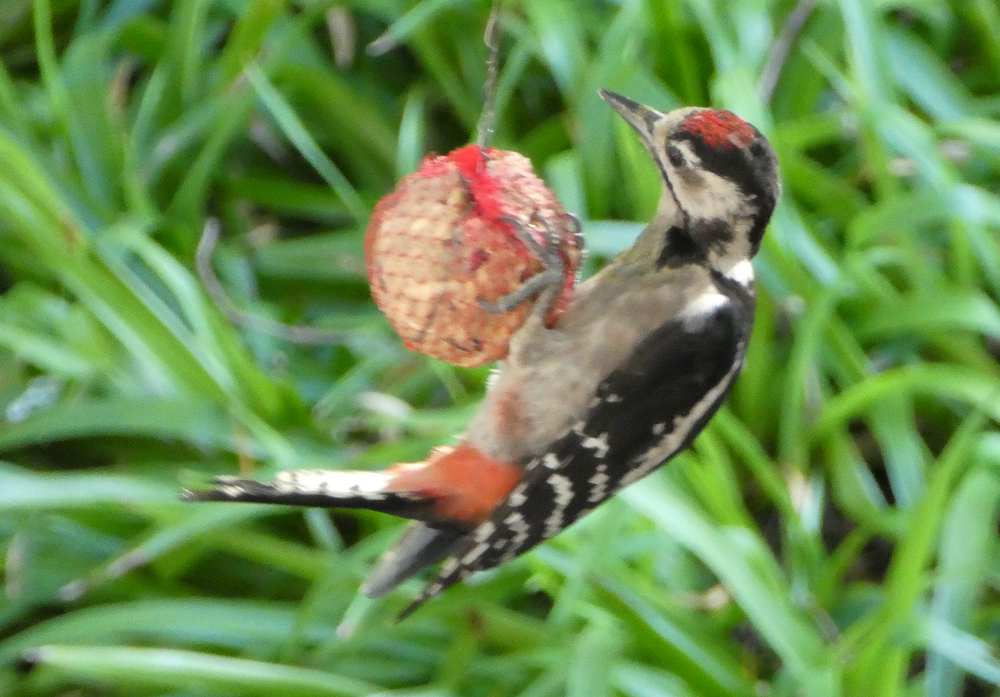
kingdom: Animalia
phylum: Chordata
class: Aves
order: Piciformes
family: Picidae
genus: Dendrocopos
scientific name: Dendrocopos major
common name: Great spotted woodpecker
